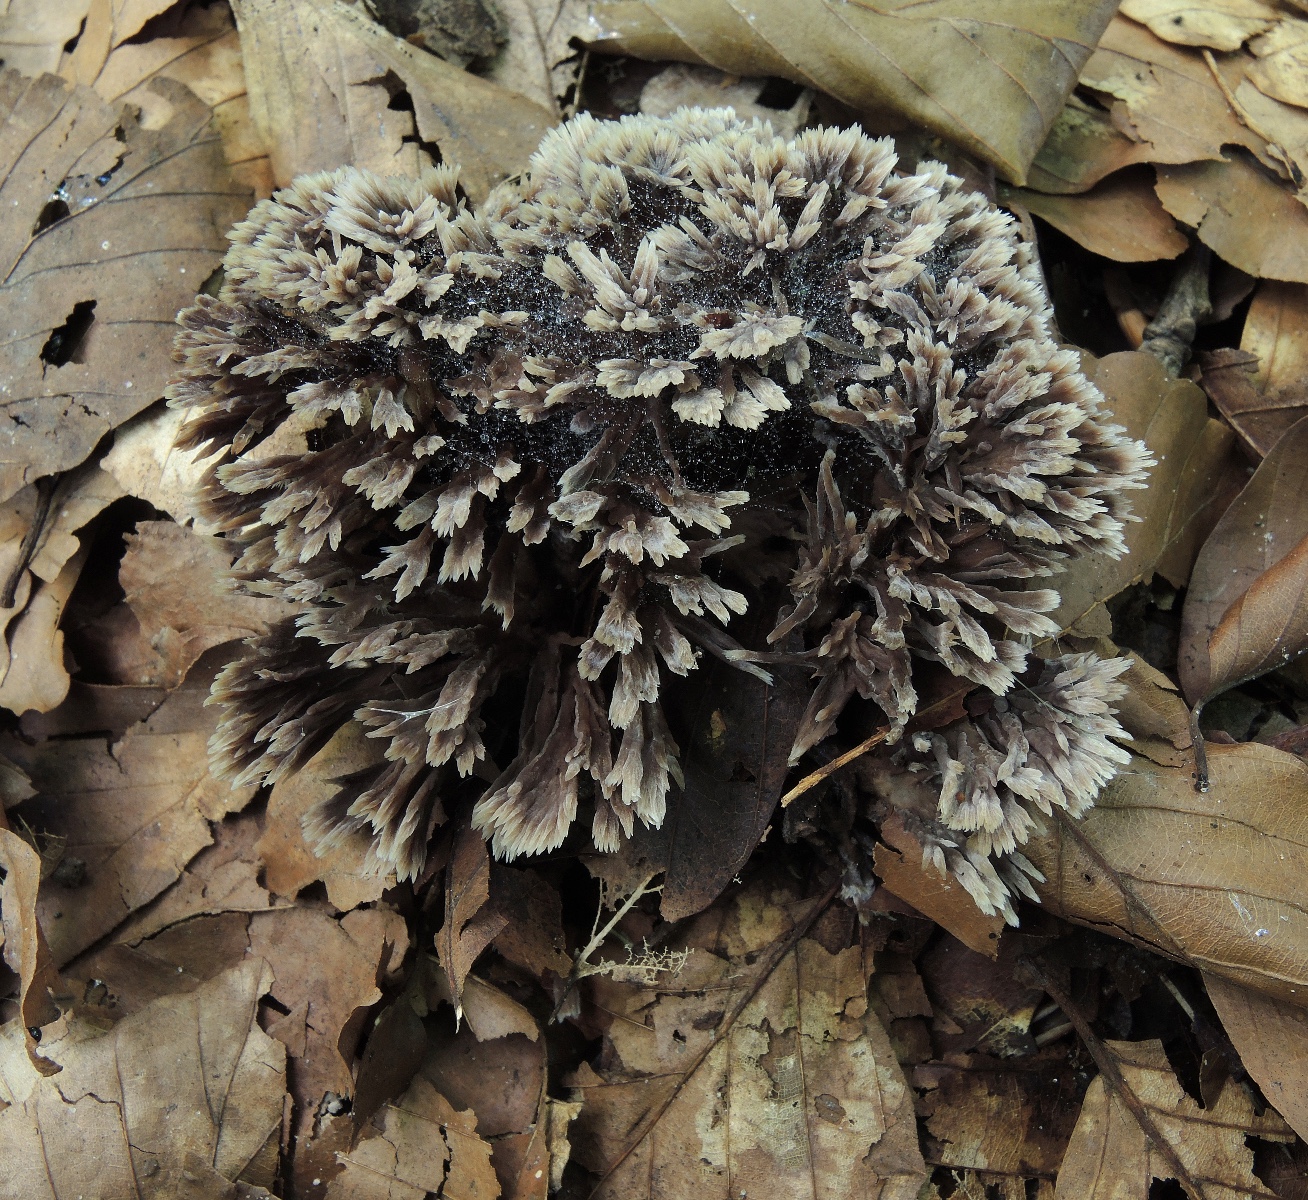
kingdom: Fungi
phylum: Basidiomycota
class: Agaricomycetes
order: Thelephorales
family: Thelephoraceae
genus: Thelephora
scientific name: Thelephora anthocephala
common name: busk-frynsesvamp
